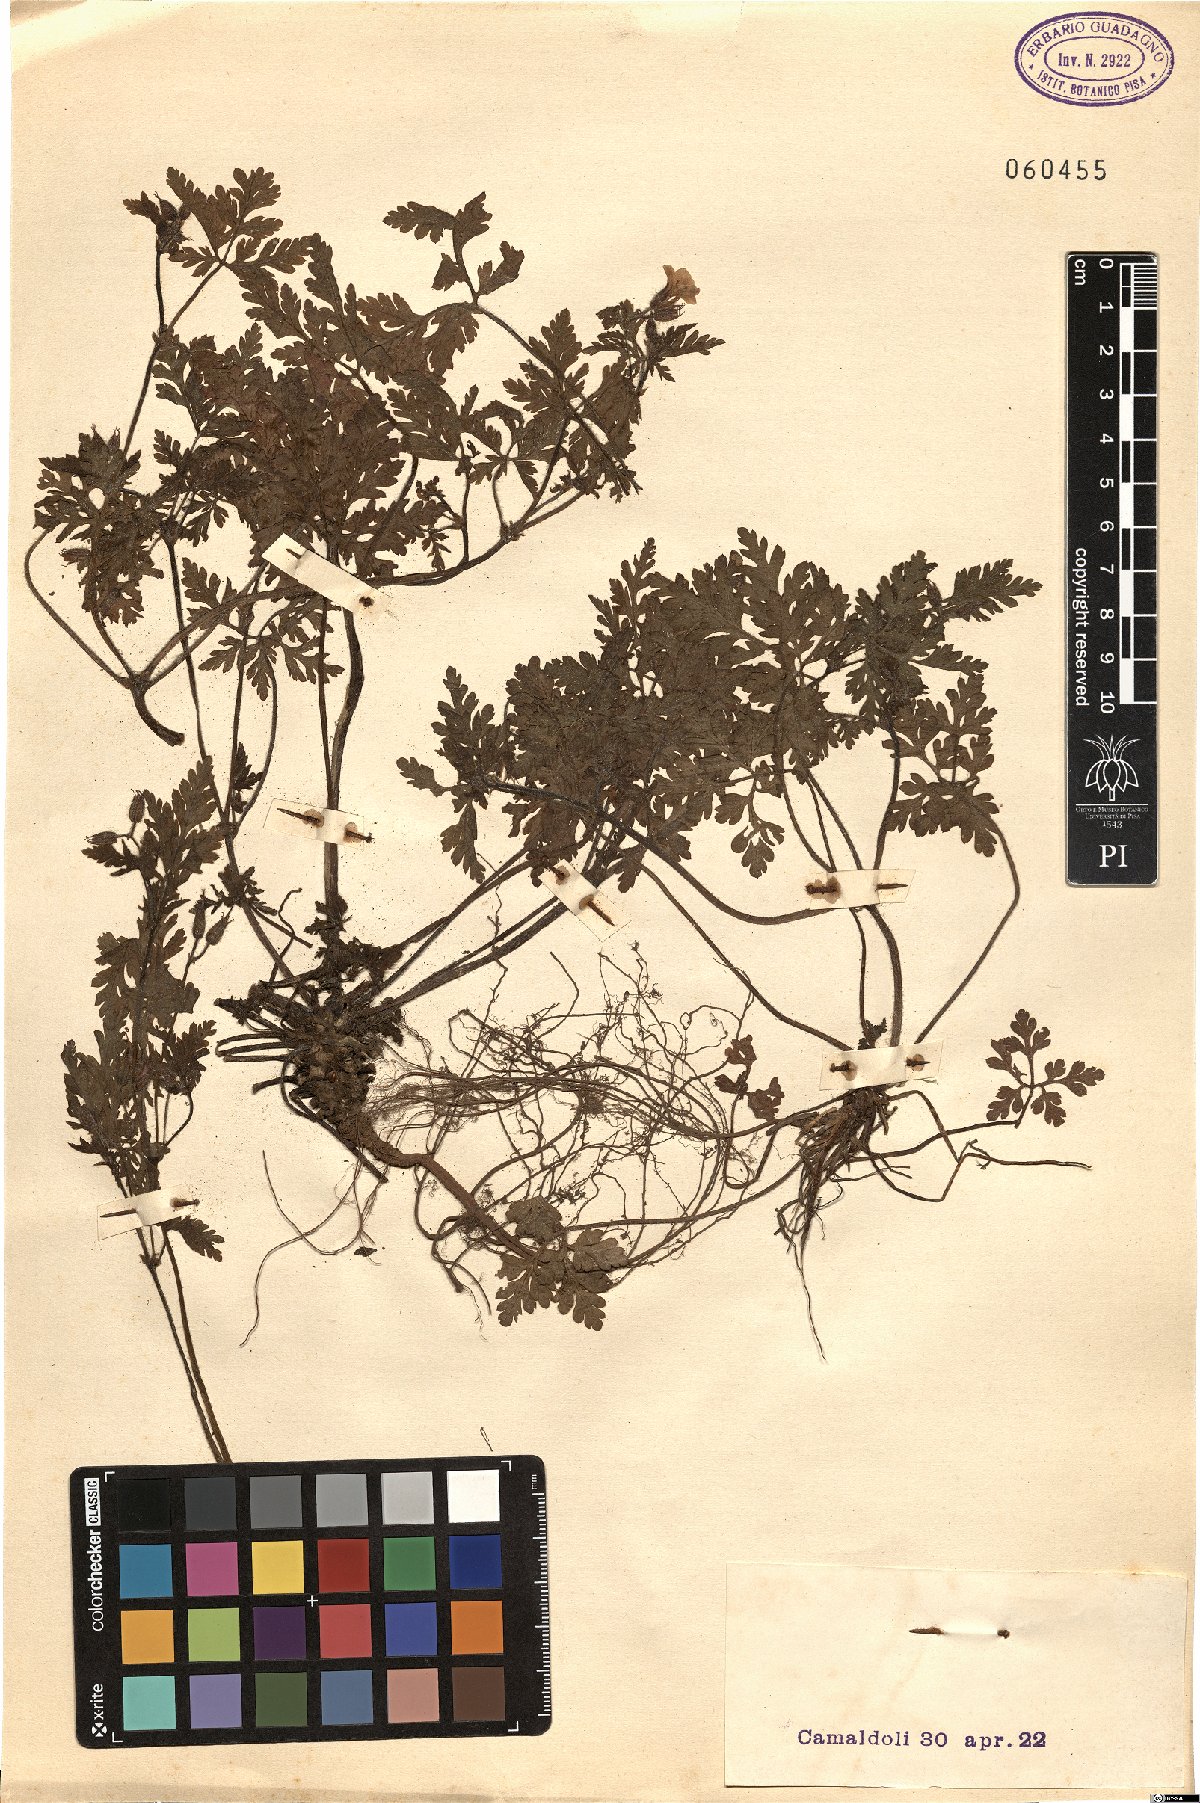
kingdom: Plantae
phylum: Tracheophyta
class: Magnoliopsida
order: Geraniales
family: Geraniaceae
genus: Geranium
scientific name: Geranium purpureum
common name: Little-robin
